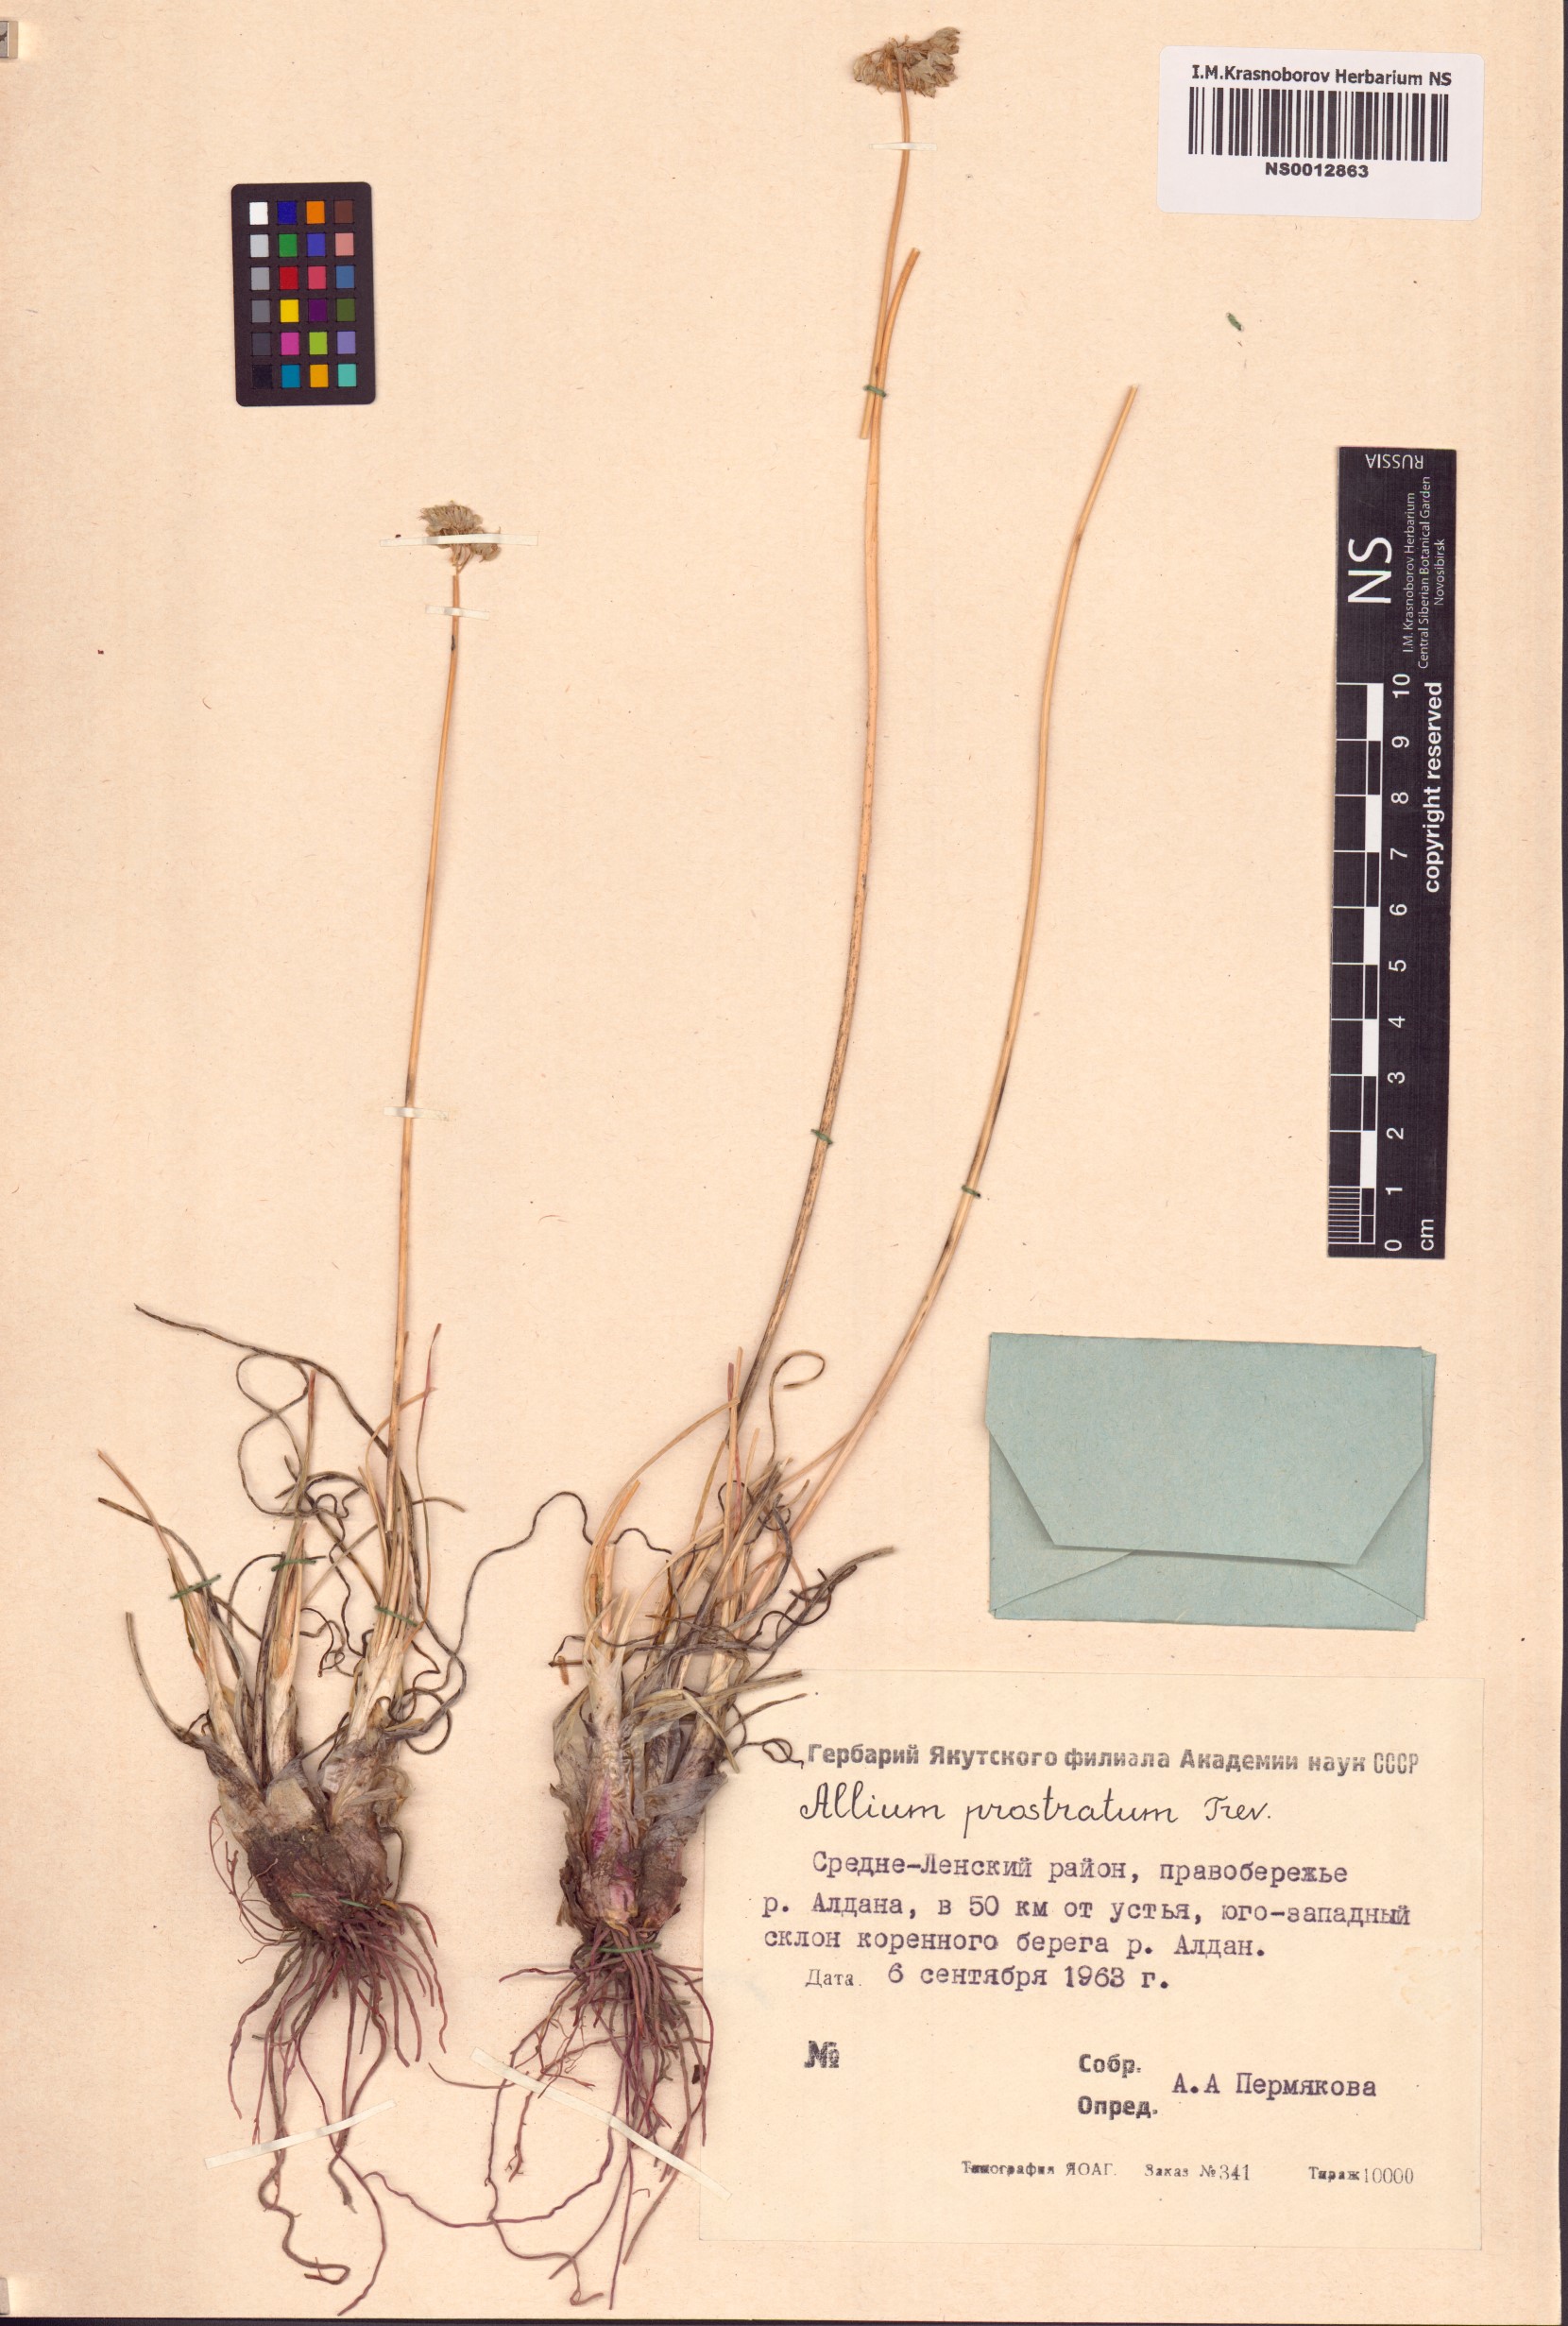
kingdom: Plantae
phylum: Tracheophyta
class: Liliopsida
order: Asparagales
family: Amaryllidaceae
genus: Allium
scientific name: Allium prostratum
